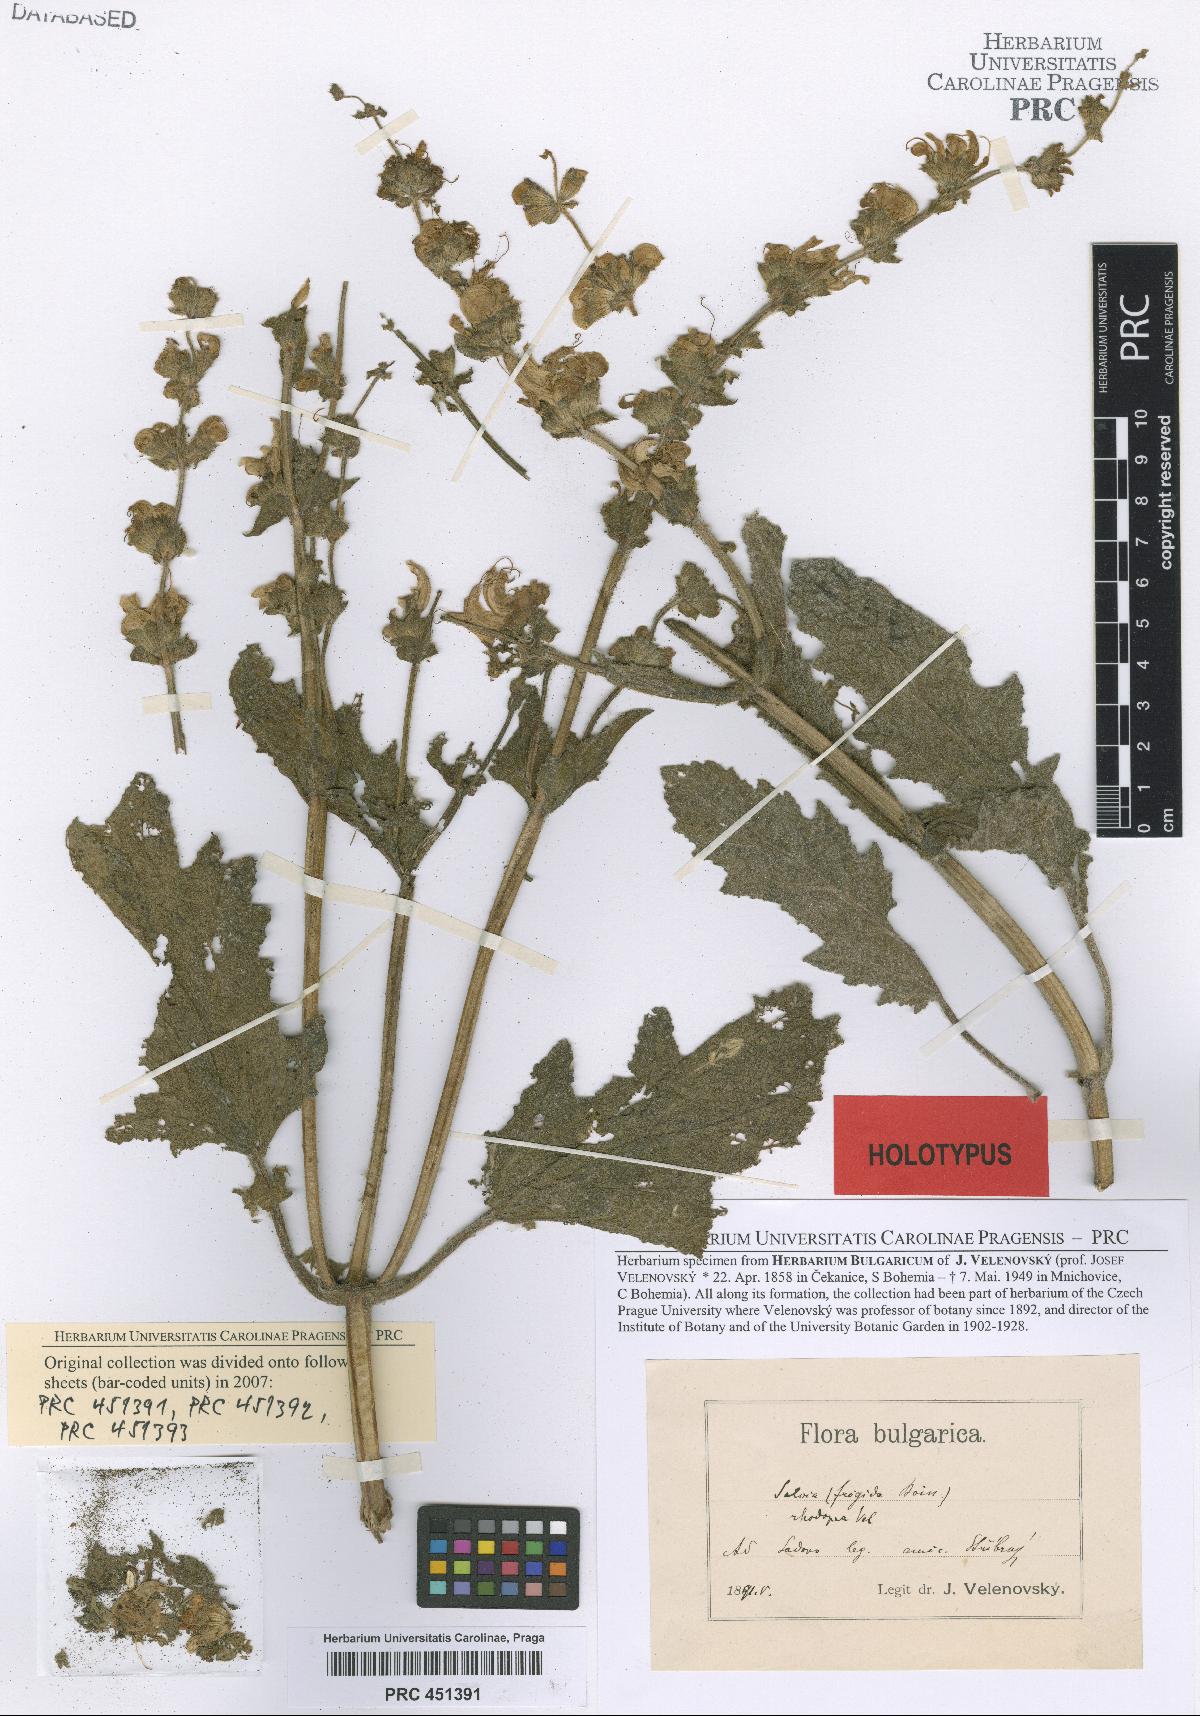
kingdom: Plantae
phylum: Tracheophyta
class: Magnoliopsida
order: Lamiales
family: Lamiaceae
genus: Salvia
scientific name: Salvia argentea
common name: Silver sage
